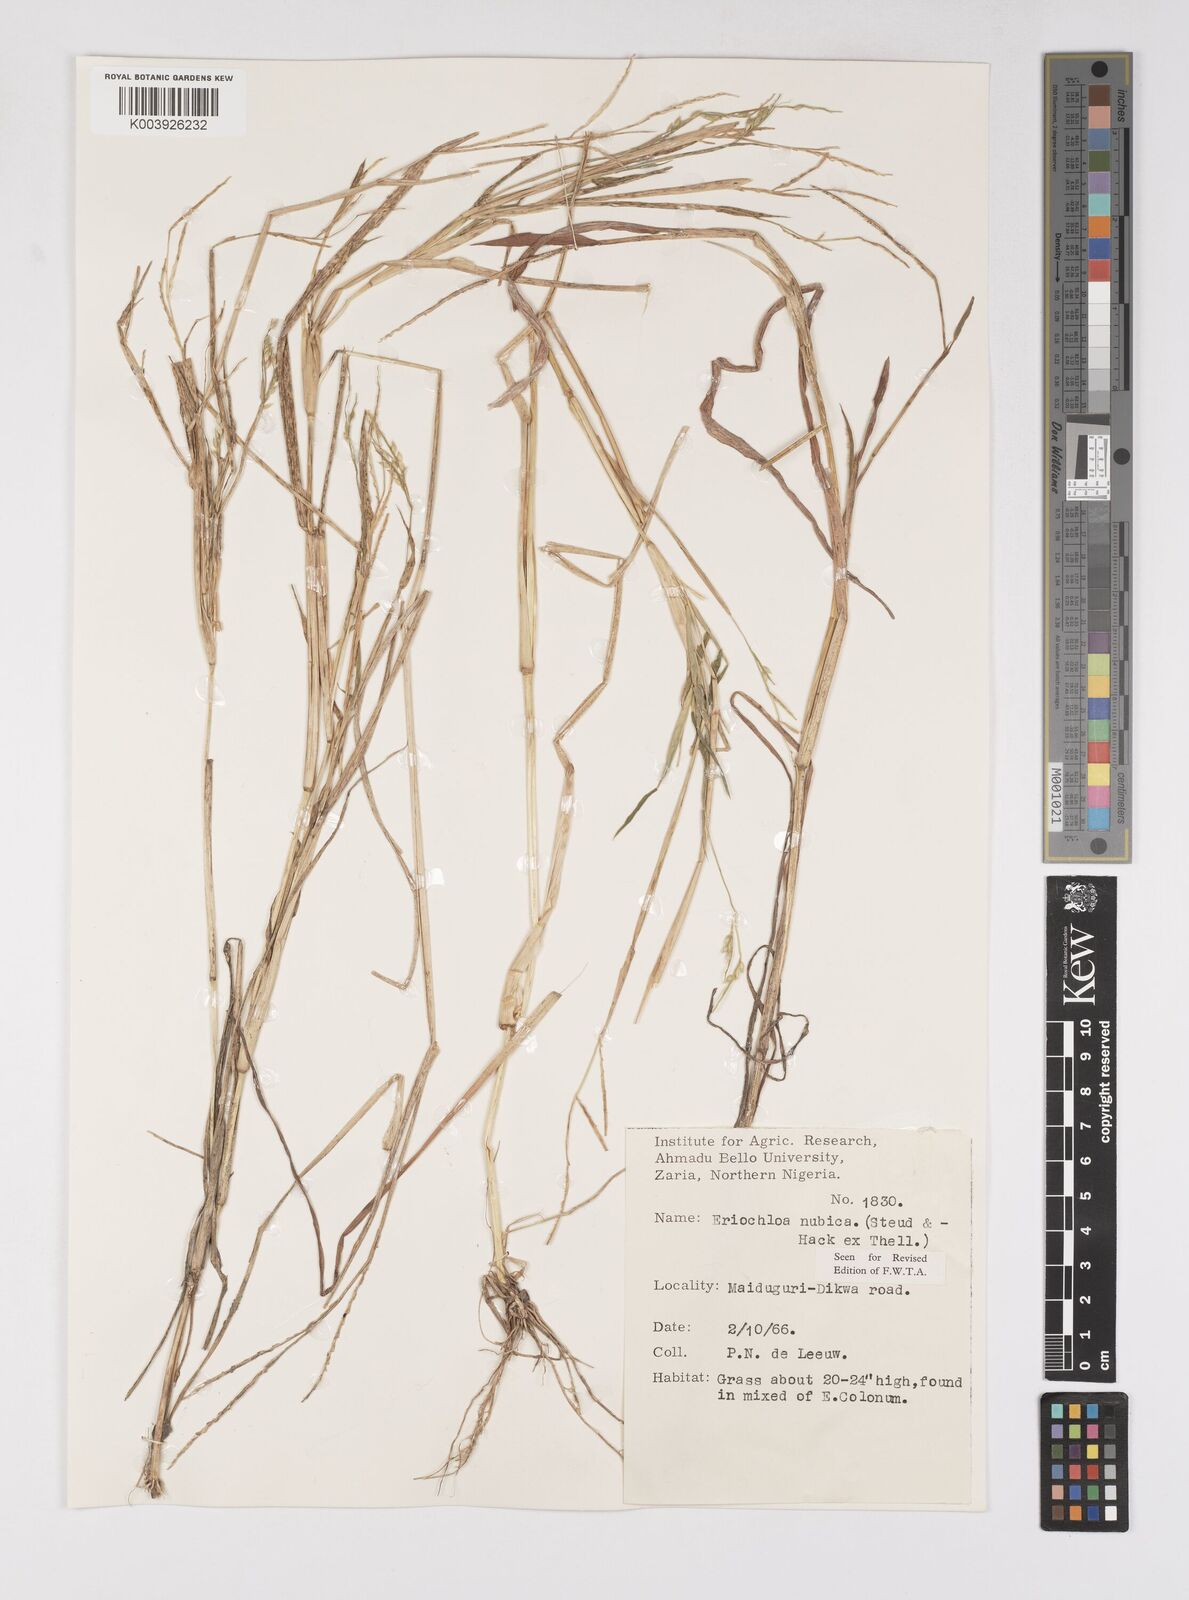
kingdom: Plantae
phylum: Tracheophyta
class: Liliopsida
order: Poales
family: Poaceae
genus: Eriochloa
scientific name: Eriochloa barbatus
